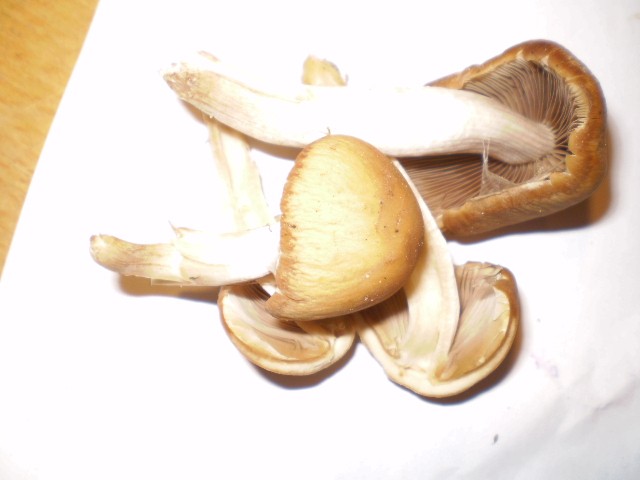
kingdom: Fungi
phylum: Basidiomycota
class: Agaricomycetes
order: Agaricales
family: Psathyrellaceae
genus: Psathyrella
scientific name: Psathyrella piluliformis
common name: lysstokket mørkhat
